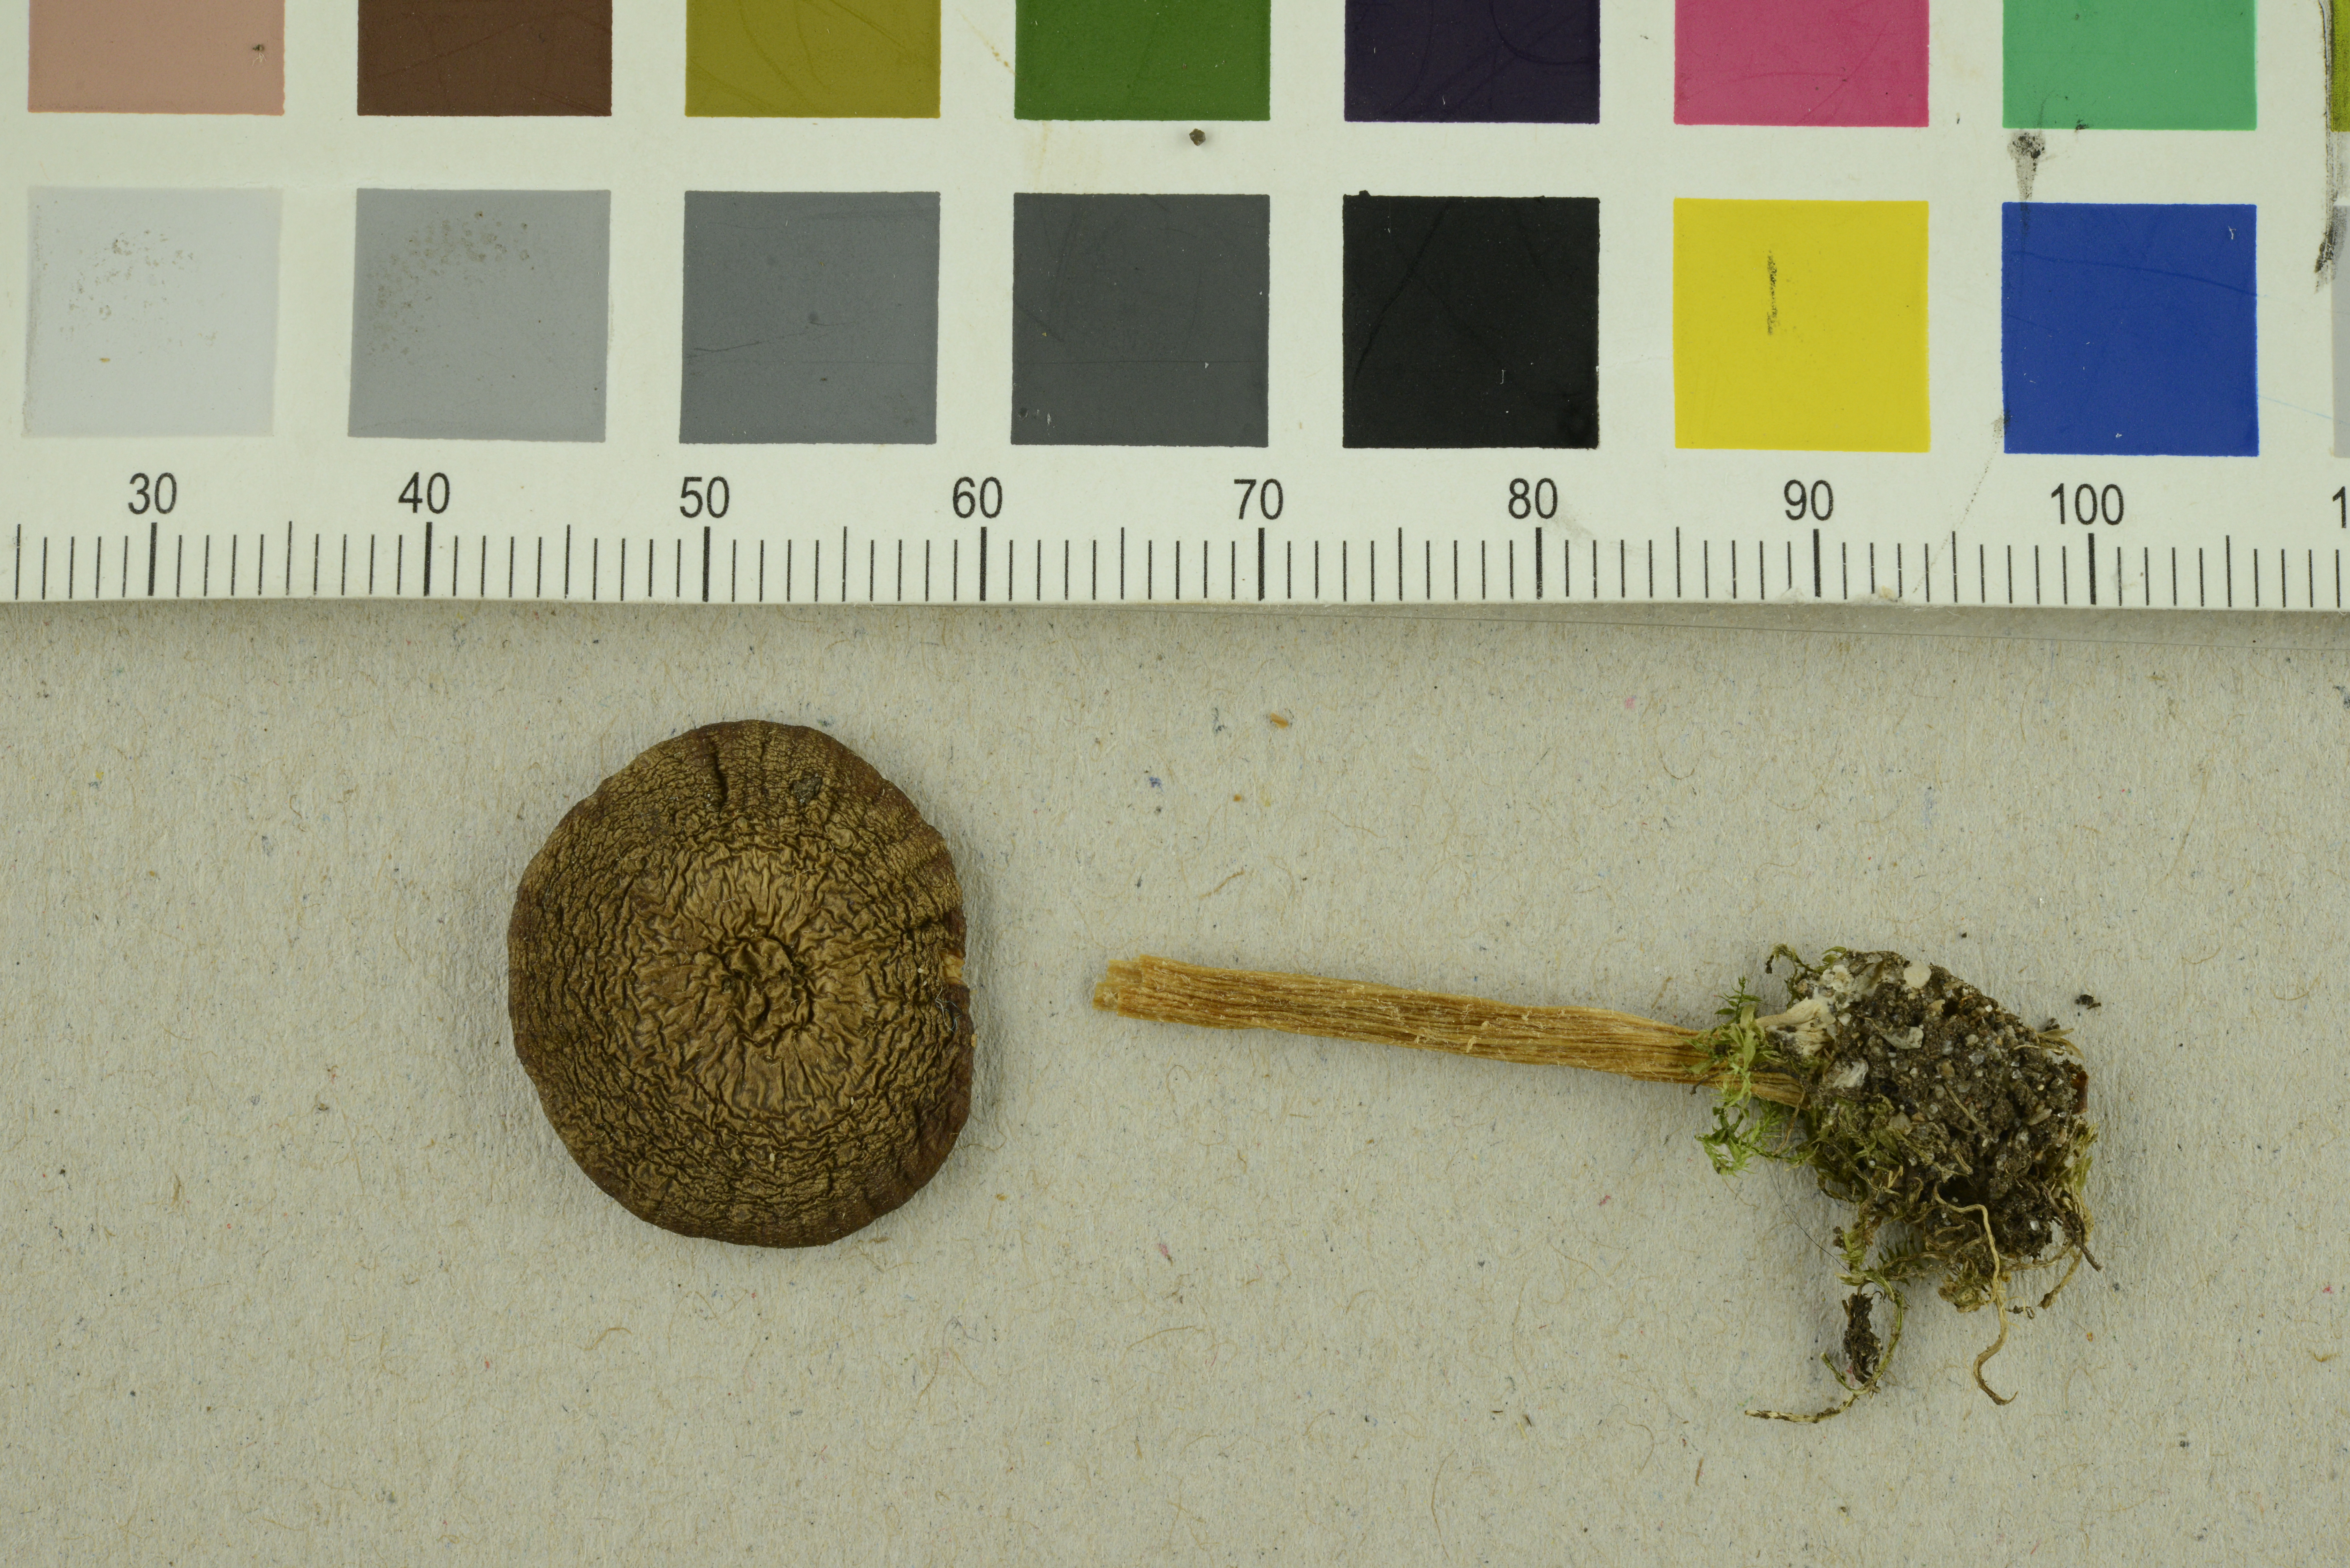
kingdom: Fungi
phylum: Basidiomycota
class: Agaricomycetes
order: Agaricales
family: Entolomataceae
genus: Entoloma
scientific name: Entoloma politum
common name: Nitrous pinkgill
